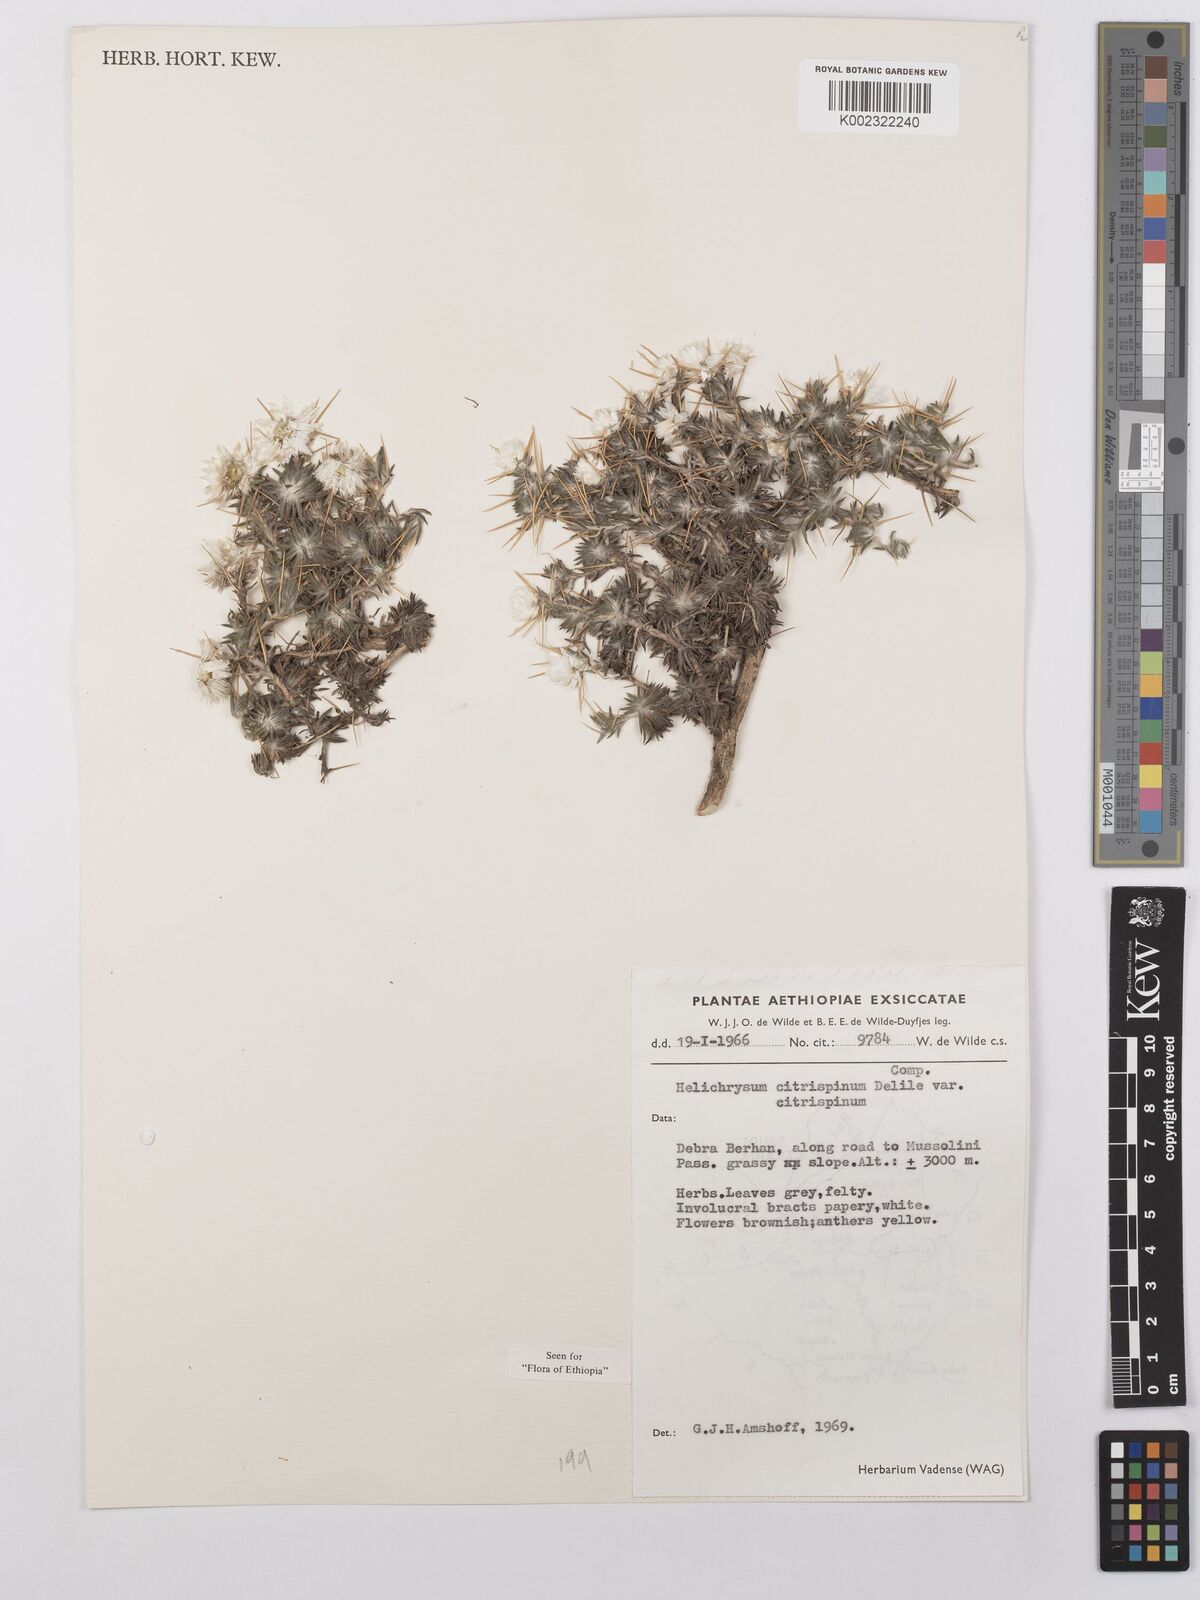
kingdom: Plantae
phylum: Tracheophyta
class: Magnoliopsida
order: Asterales
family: Asteraceae
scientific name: Asteraceae
